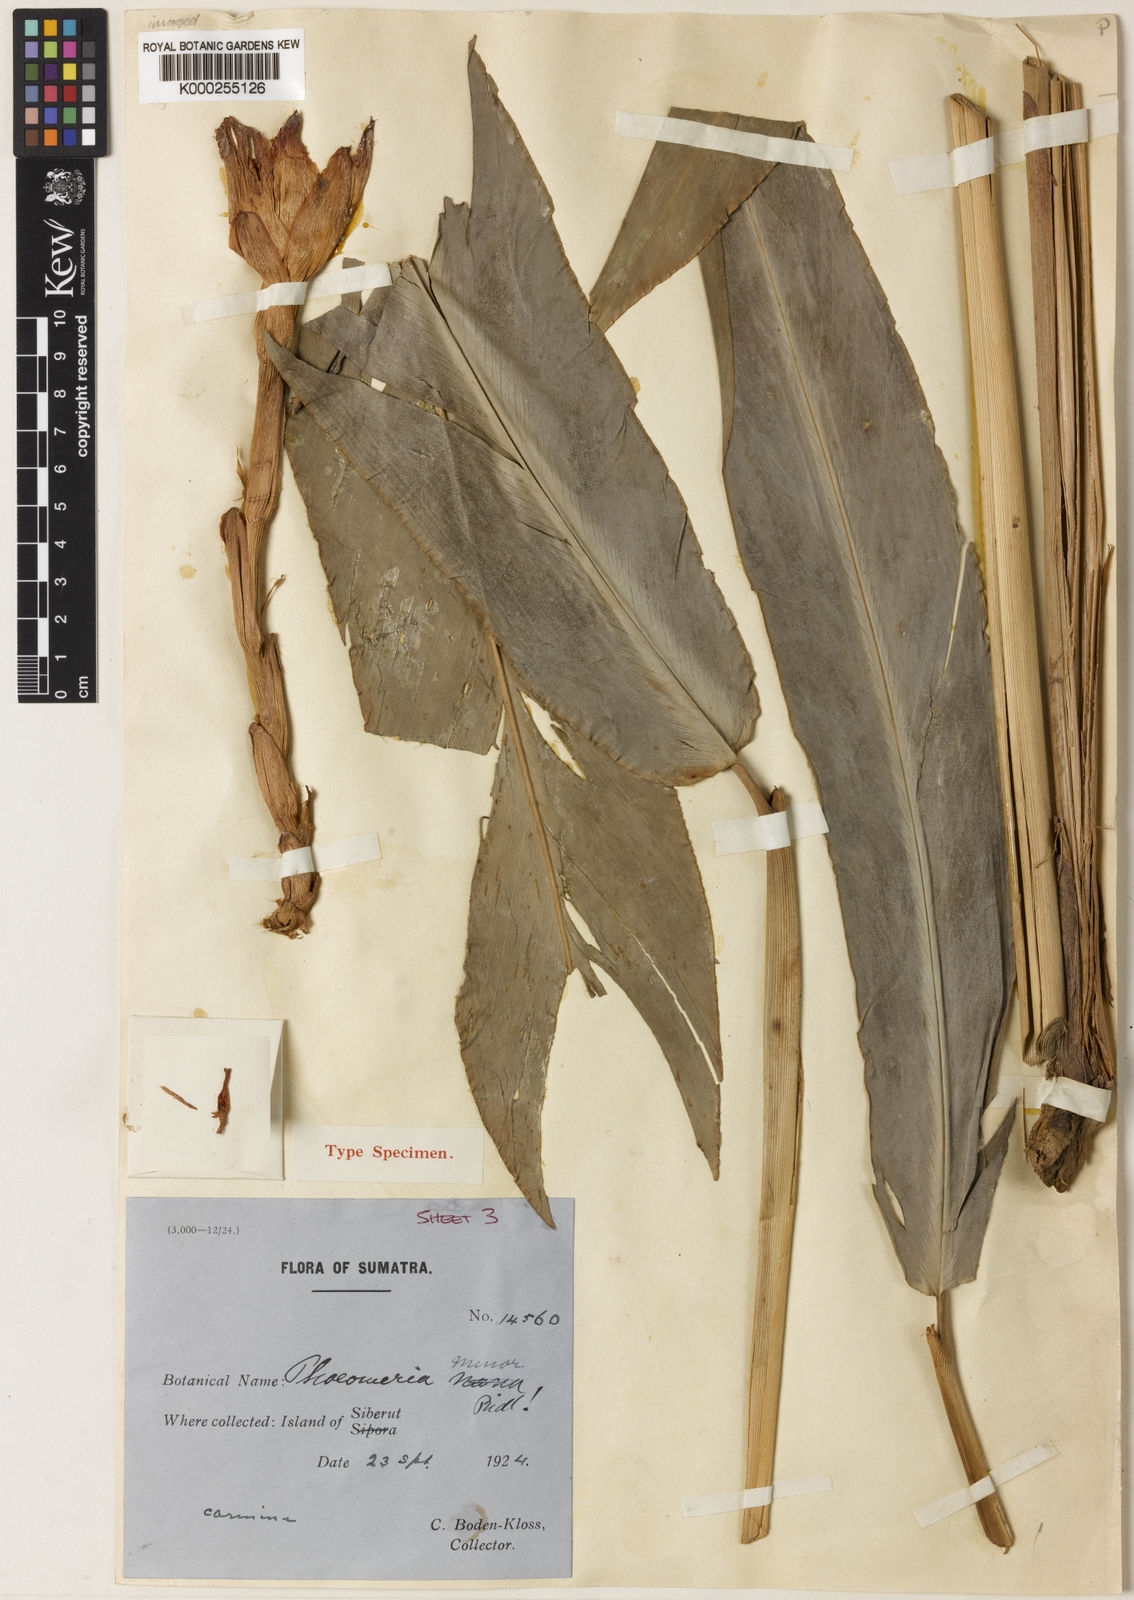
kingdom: Plantae
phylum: Tracheophyta
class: Liliopsida
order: Zingiberales
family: Zingiberaceae
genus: Etlingera
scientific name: Etlingera minor
